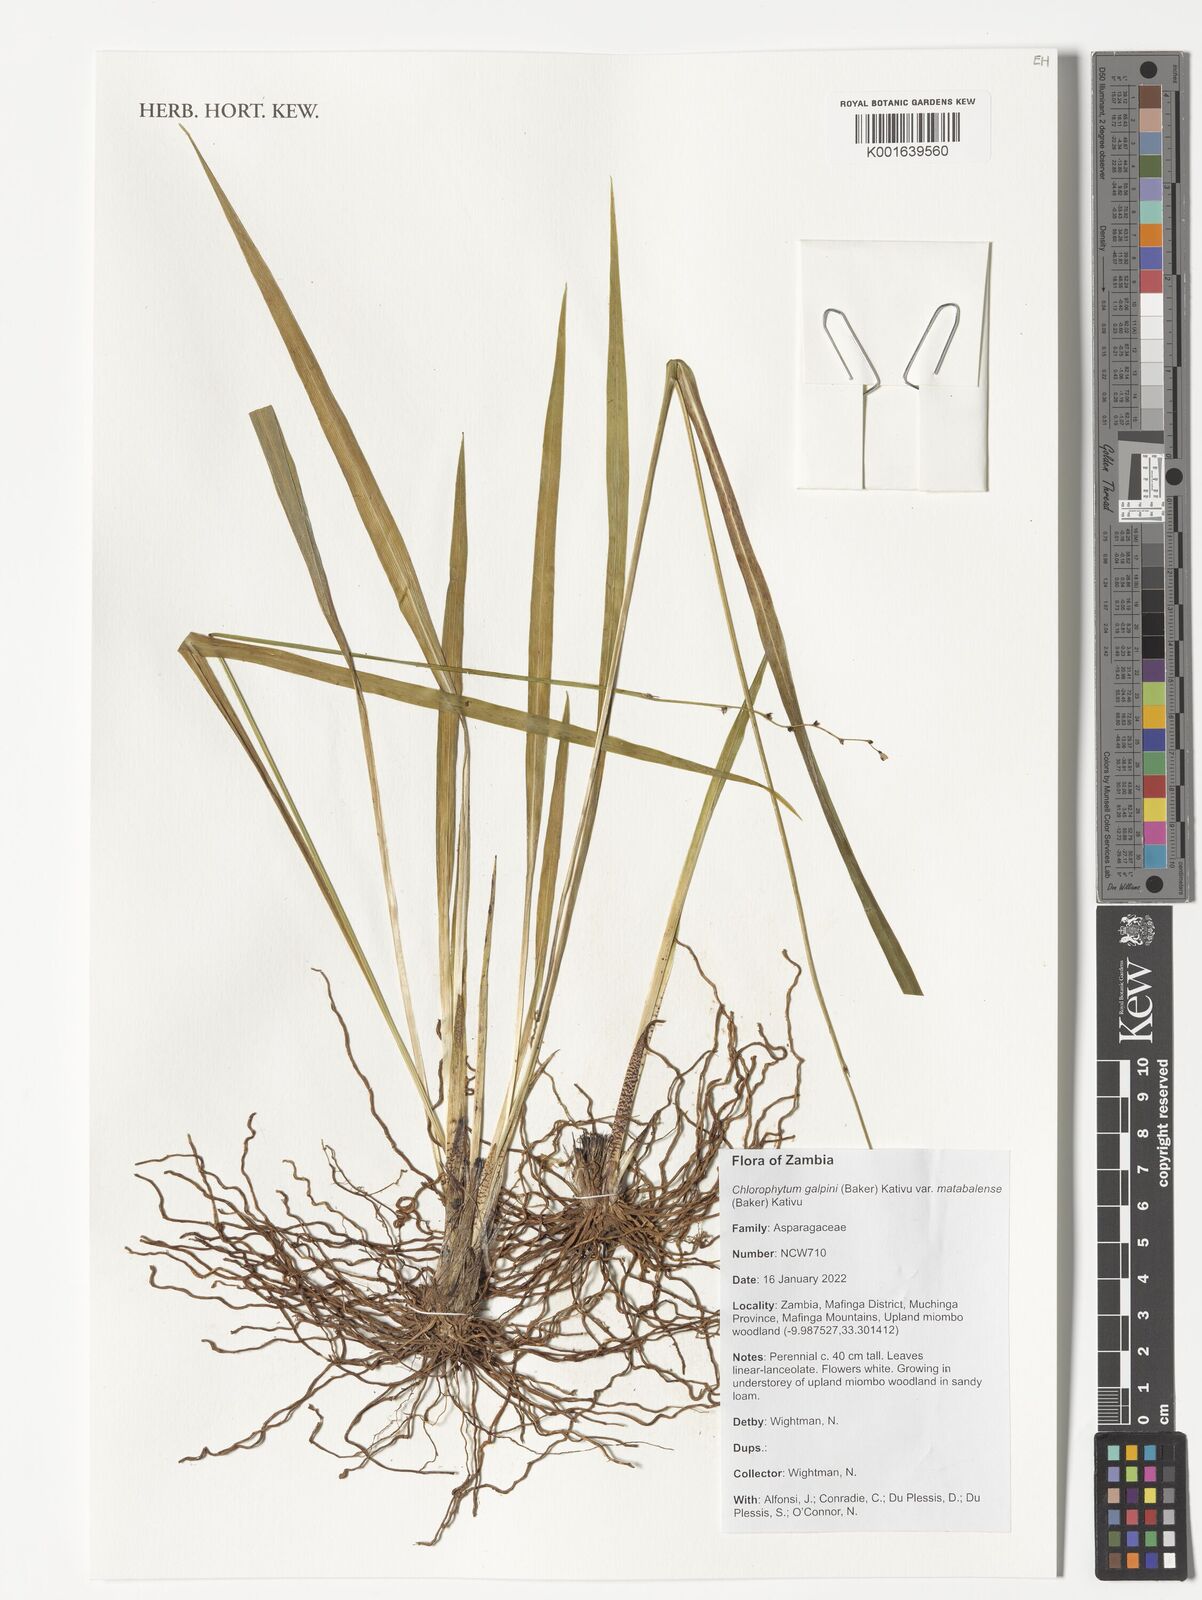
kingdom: Plantae
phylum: Tracheophyta
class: Liliopsida
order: Asparagales
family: Asparagaceae
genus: Chlorophytum
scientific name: Chlorophytum galpinii
